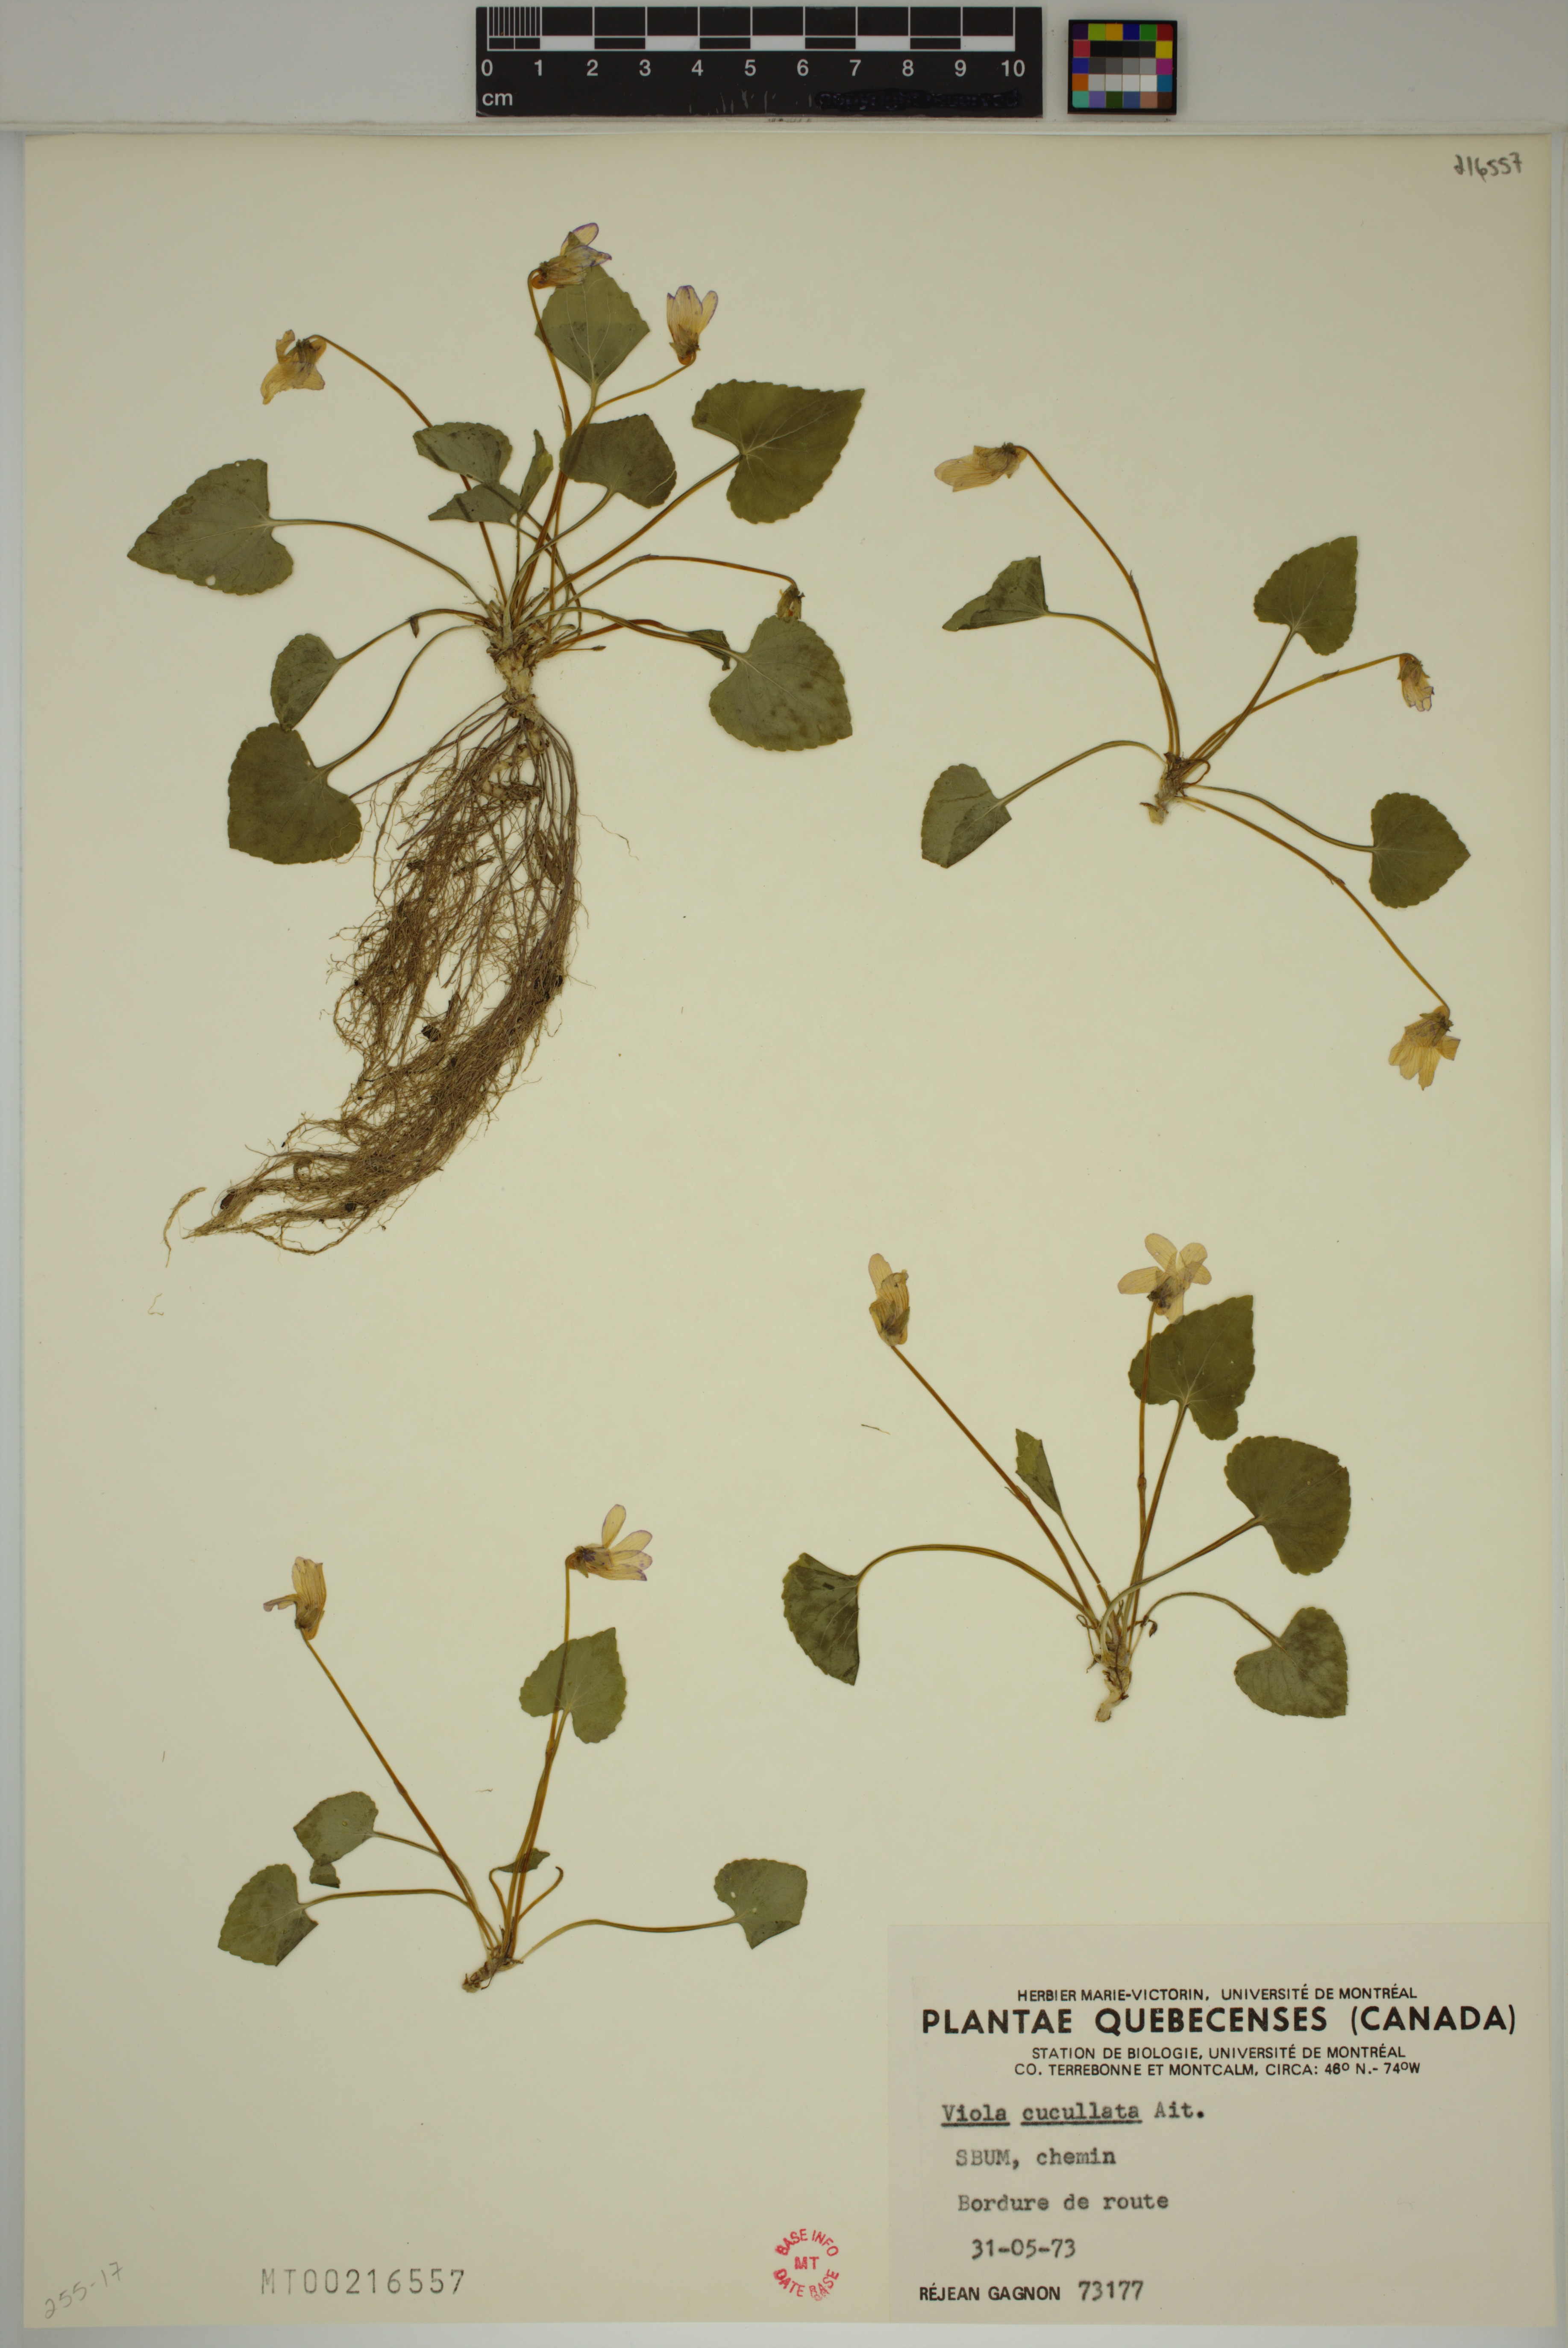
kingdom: Plantae
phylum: Tracheophyta
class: Magnoliopsida
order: Malpighiales
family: Violaceae
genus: Viola
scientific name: Viola cucullata
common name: Marsh blue violet
